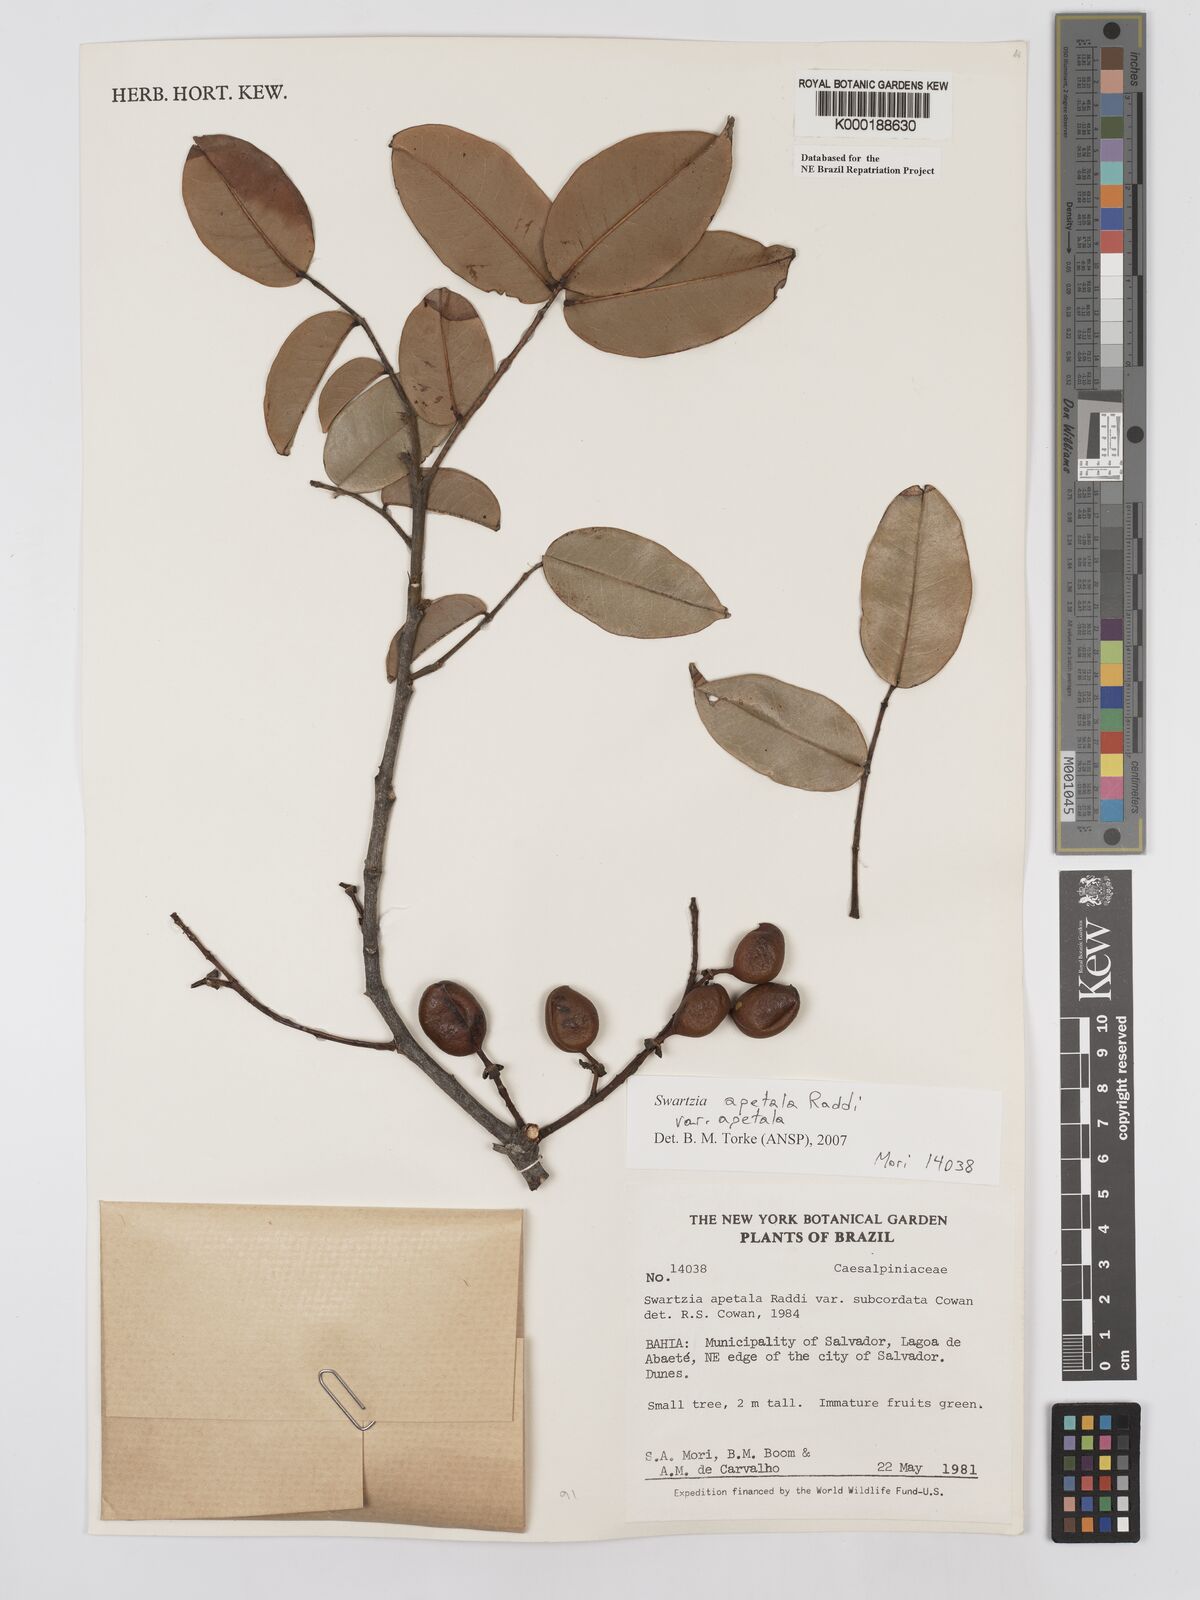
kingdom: Plantae
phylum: Tracheophyta
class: Magnoliopsida
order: Fabales
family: Fabaceae
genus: Swartzia
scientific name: Swartzia apetala
